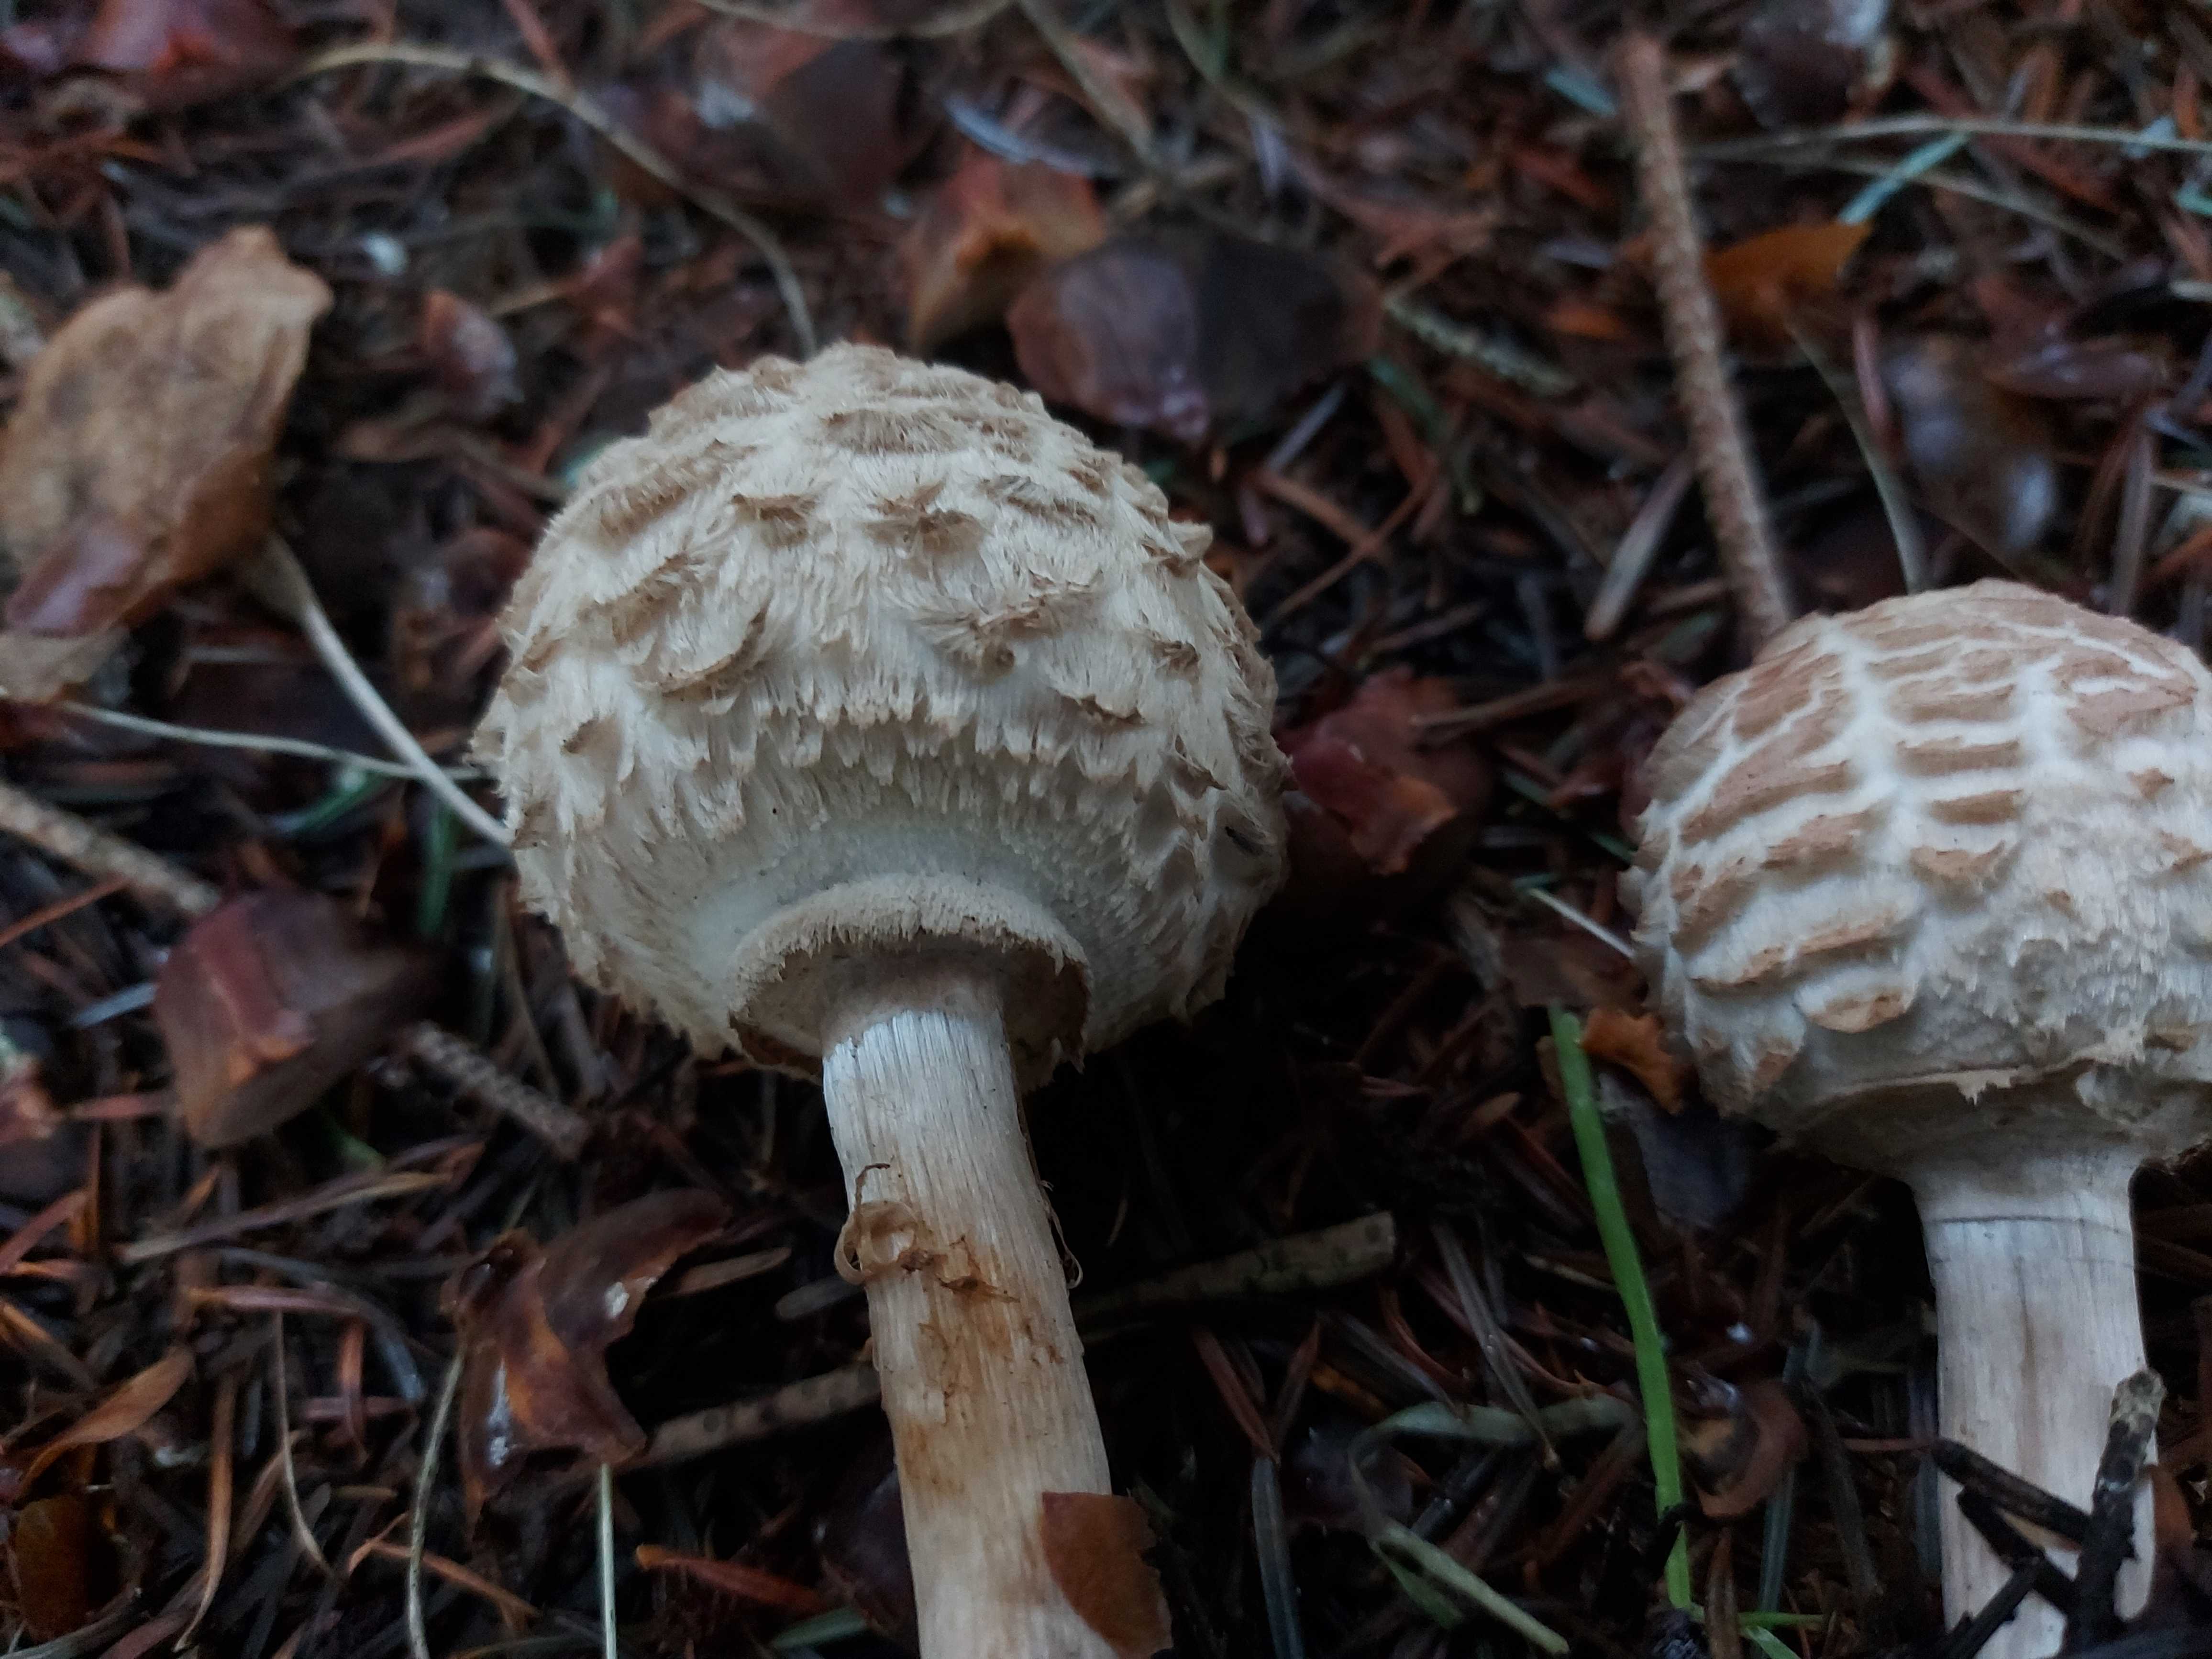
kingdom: Fungi
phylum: Basidiomycota
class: Agaricomycetes
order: Agaricales
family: Agaricaceae
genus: Chlorophyllum
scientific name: Chlorophyllum olivieri
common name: almindelig rabarberhat
